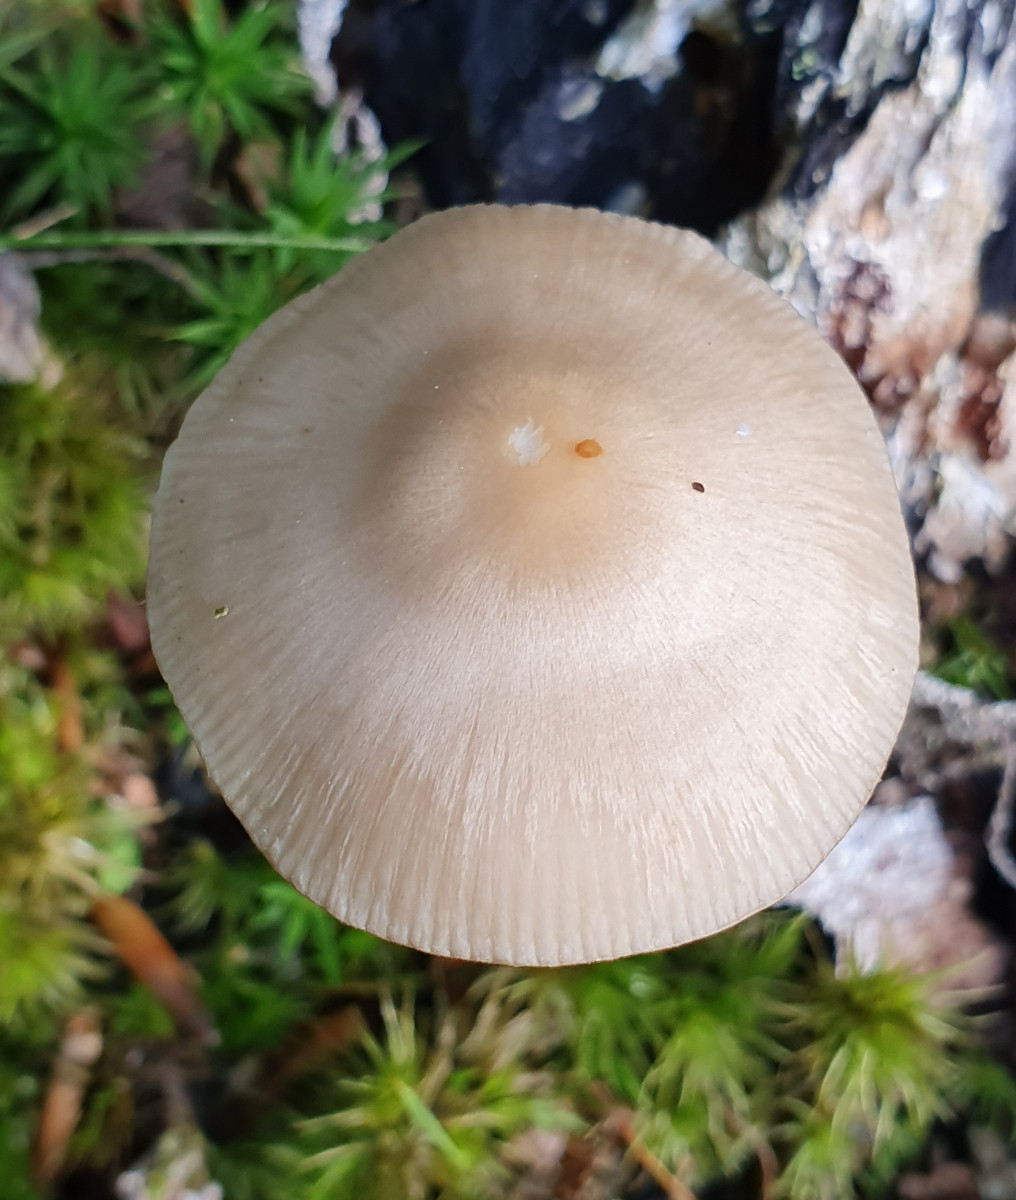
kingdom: Fungi
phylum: Basidiomycota
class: Agaricomycetes
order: Agaricales
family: Mycenaceae
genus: Mycena
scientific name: Mycena galericulata
